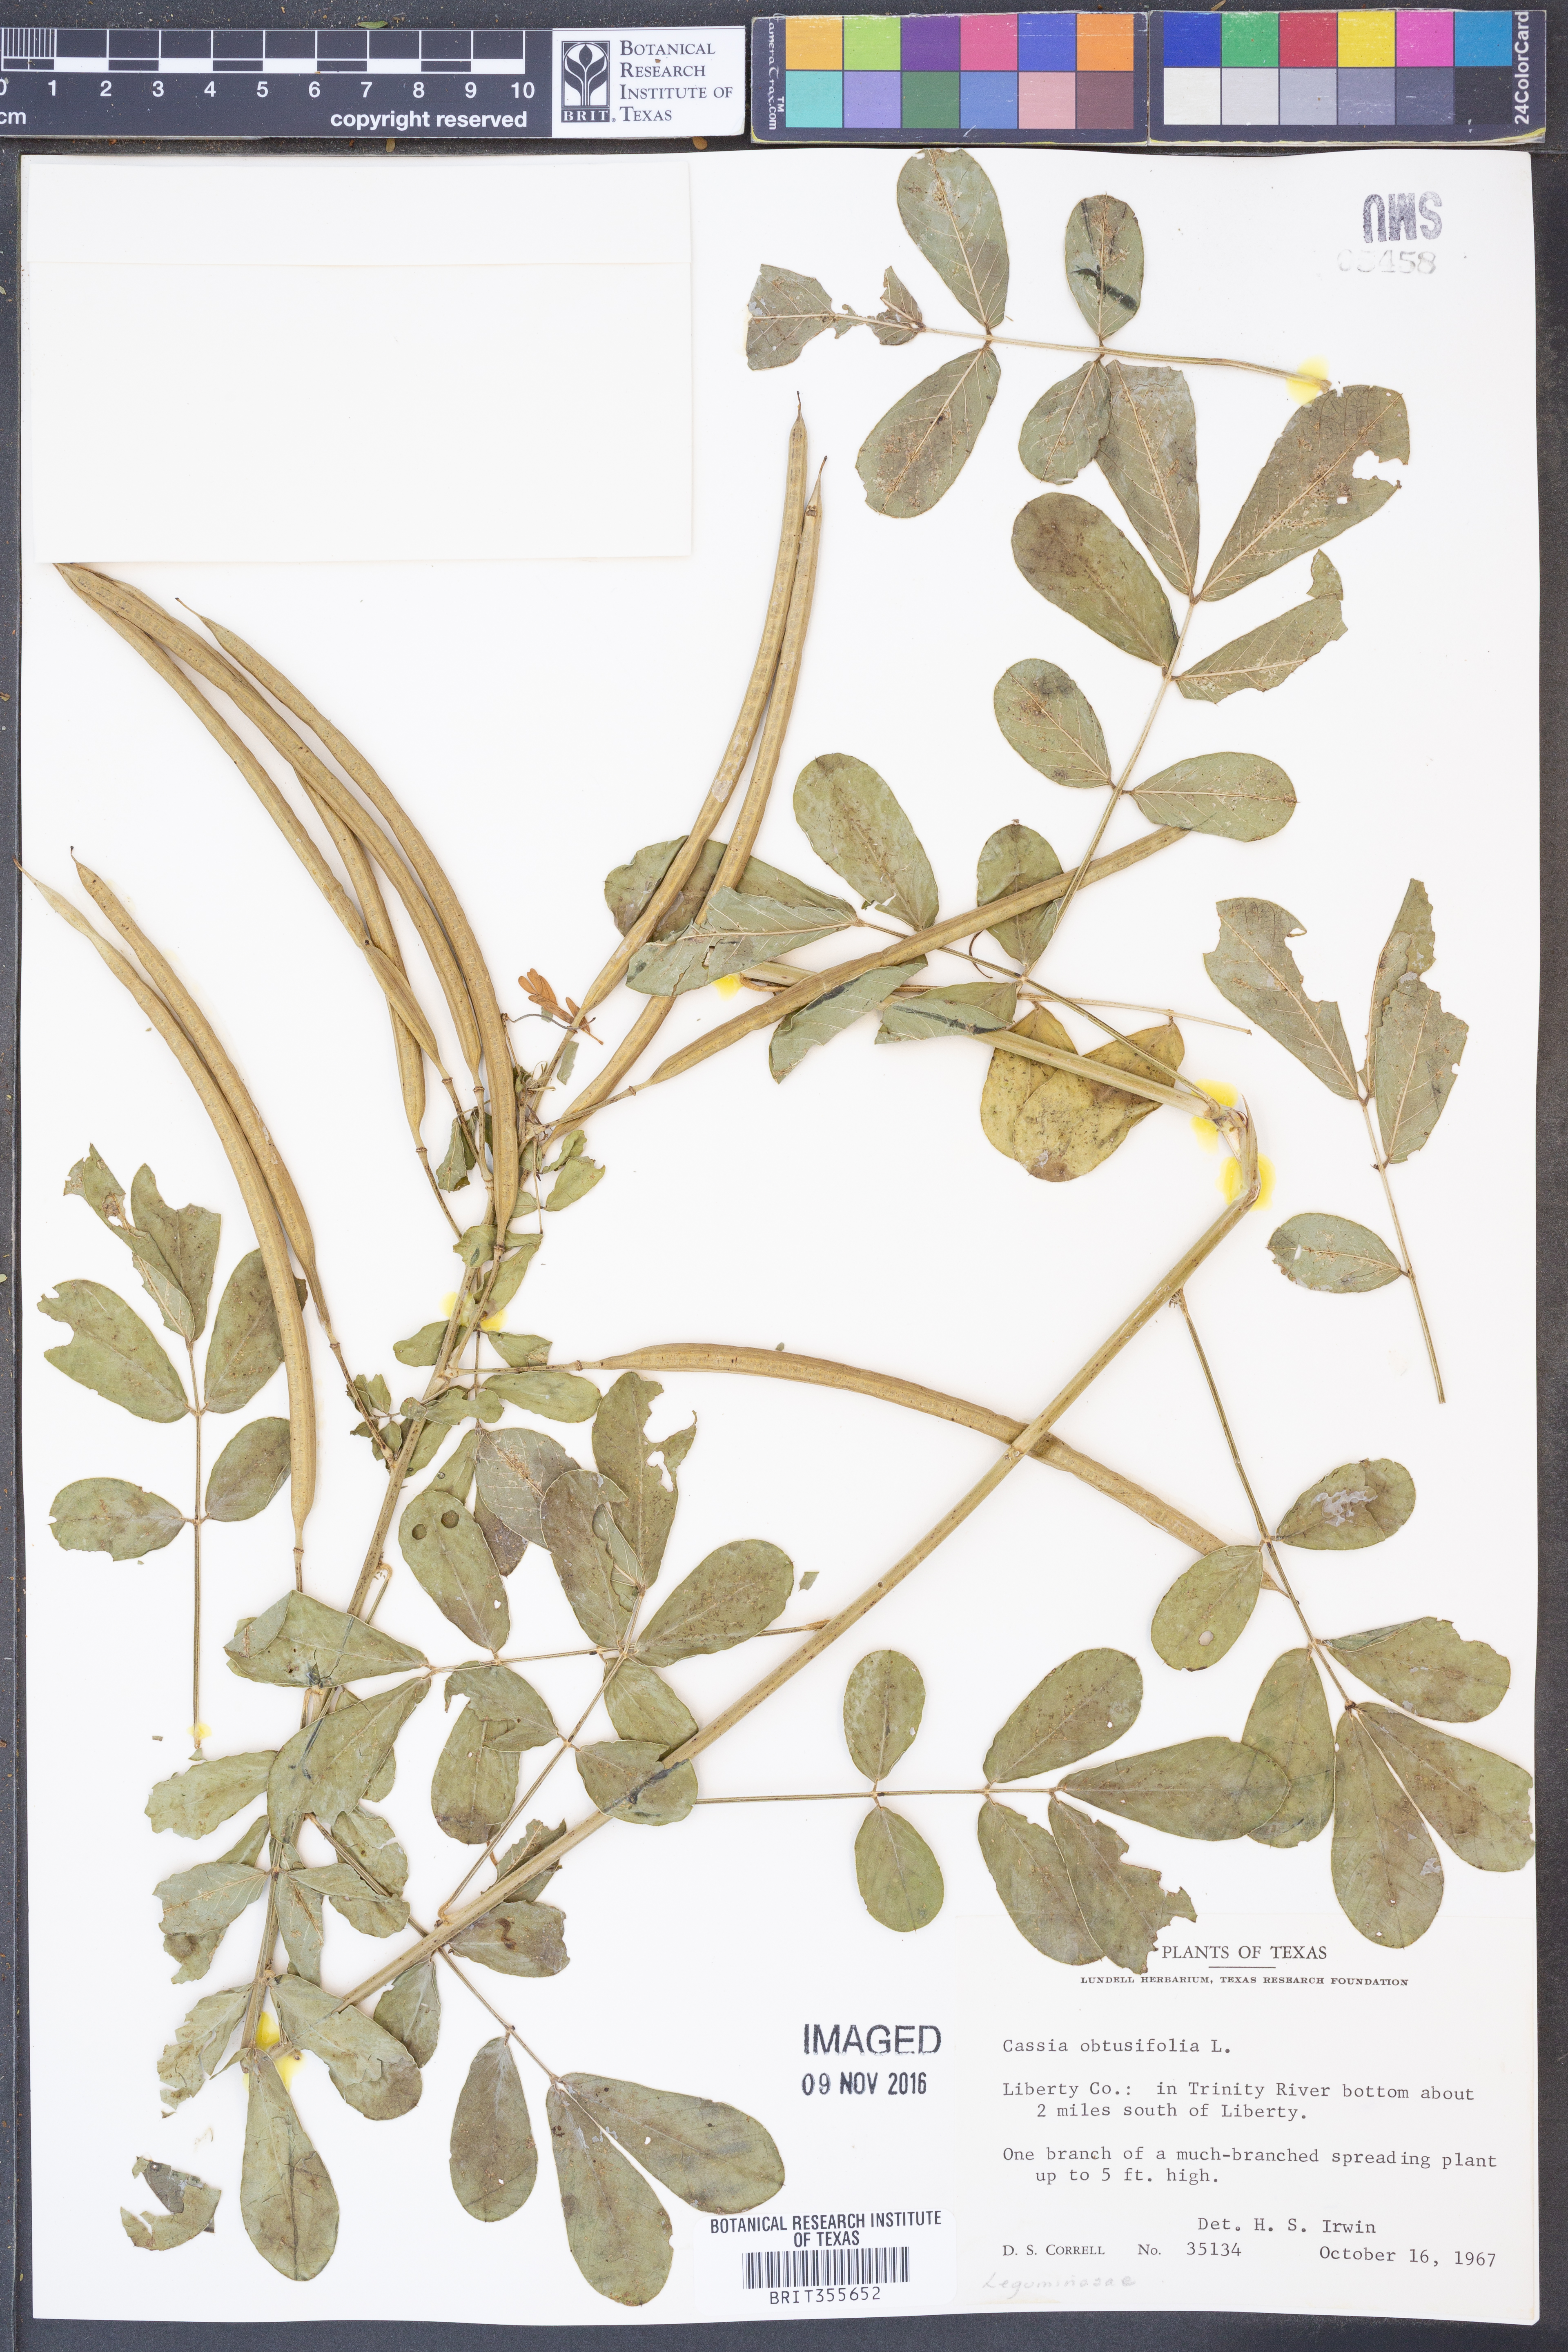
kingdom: Plantae
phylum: Tracheophyta
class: Magnoliopsida
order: Fabales
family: Fabaceae
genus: Senna
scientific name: Senna obtusifolia
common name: Java-bean
